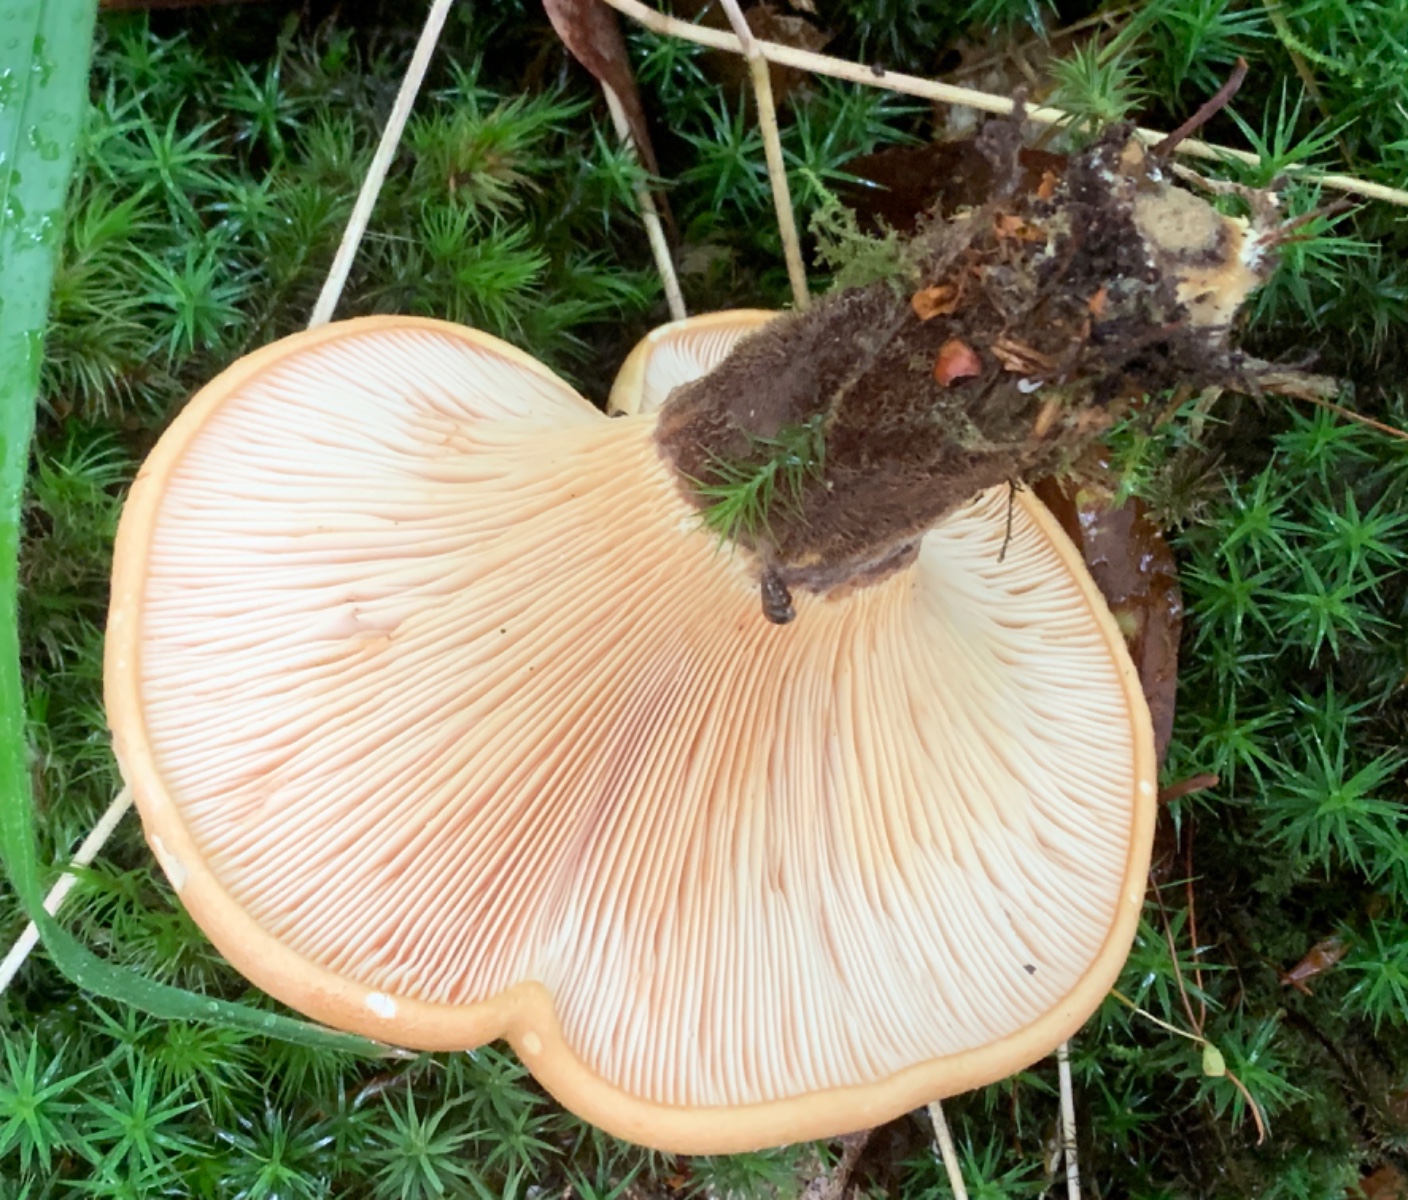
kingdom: Fungi
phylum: Basidiomycota
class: Agaricomycetes
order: Boletales
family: Tapinellaceae
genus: Tapinella
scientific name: Tapinella atrotomentosa
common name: sortfiltet viftesvamp
